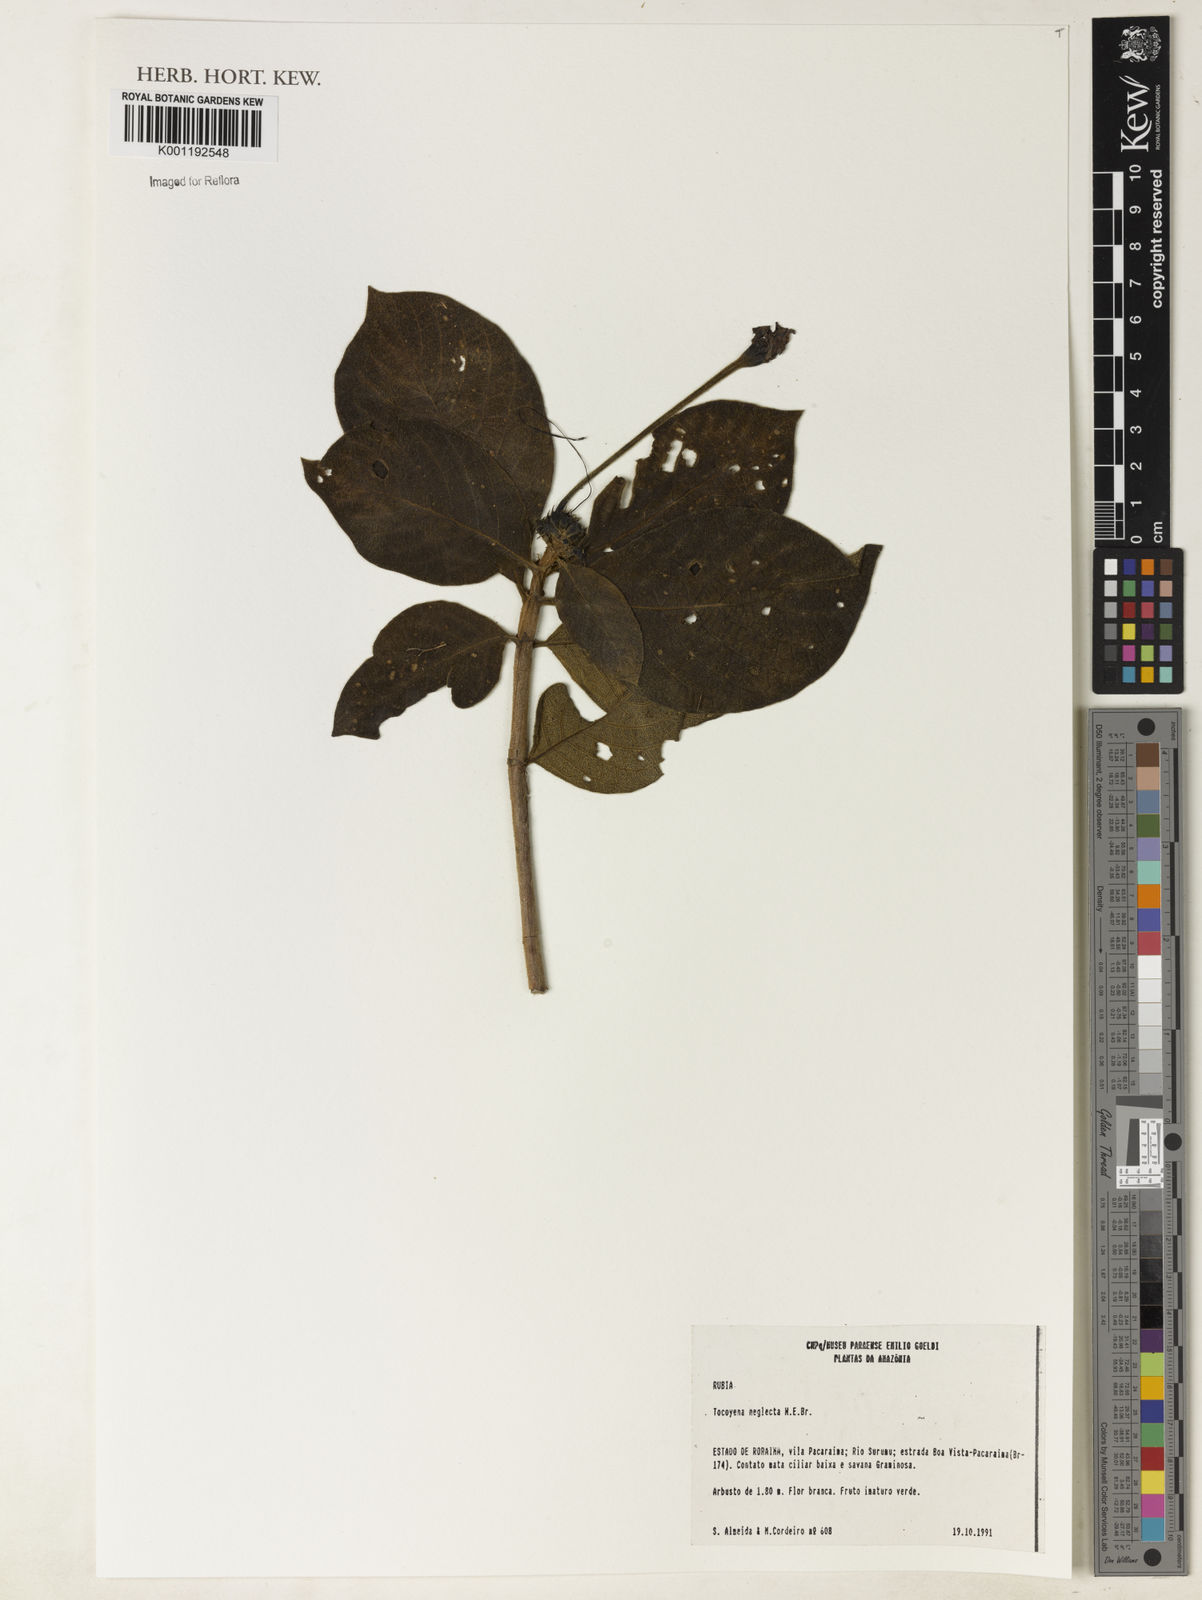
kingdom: Plantae
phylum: Tracheophyta
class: Magnoliopsida
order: Gentianales
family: Rubiaceae
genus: Tocoyena
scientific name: Tocoyena neglecta
